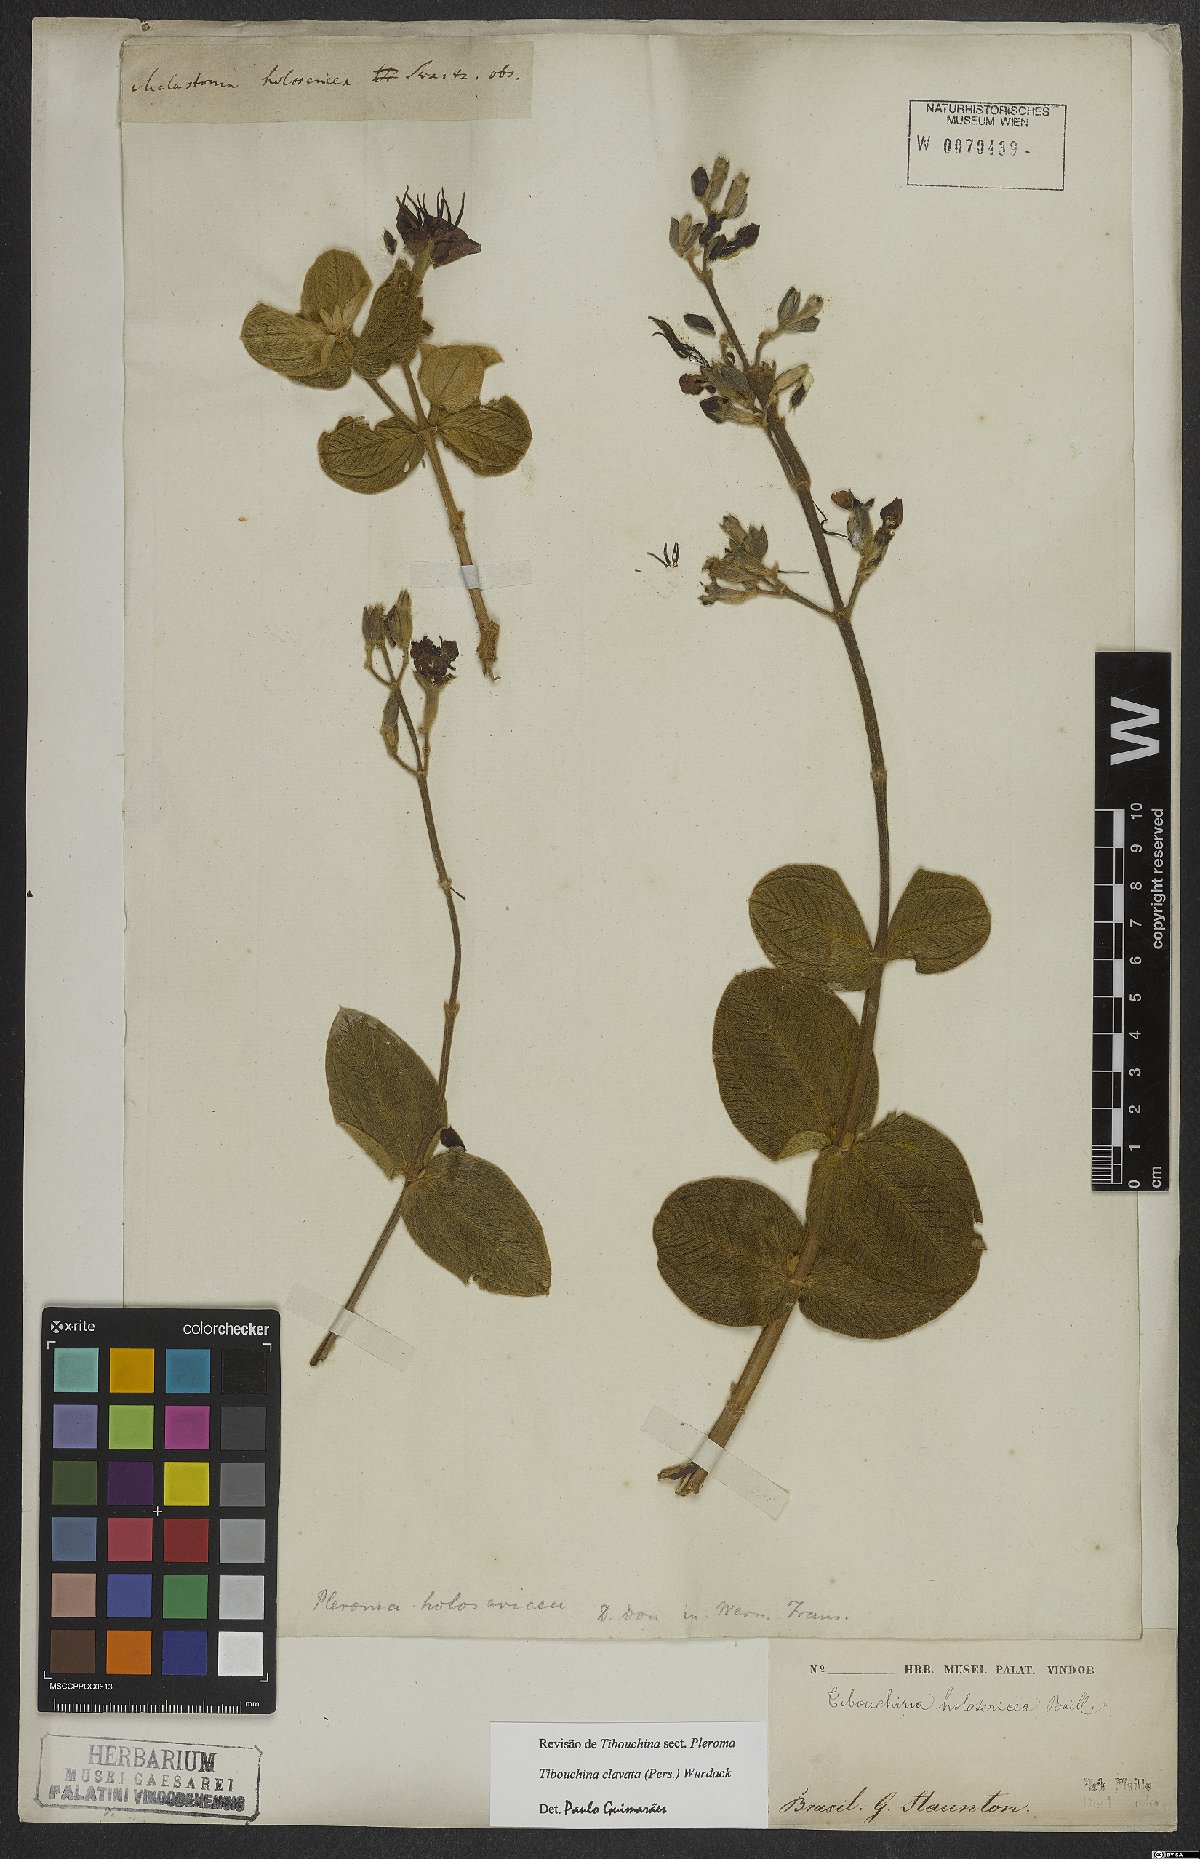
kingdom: Plantae
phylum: Tracheophyta
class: Magnoliopsida
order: Myrtales
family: Melastomataceae
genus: Pleroma
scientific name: Pleroma clavatum
